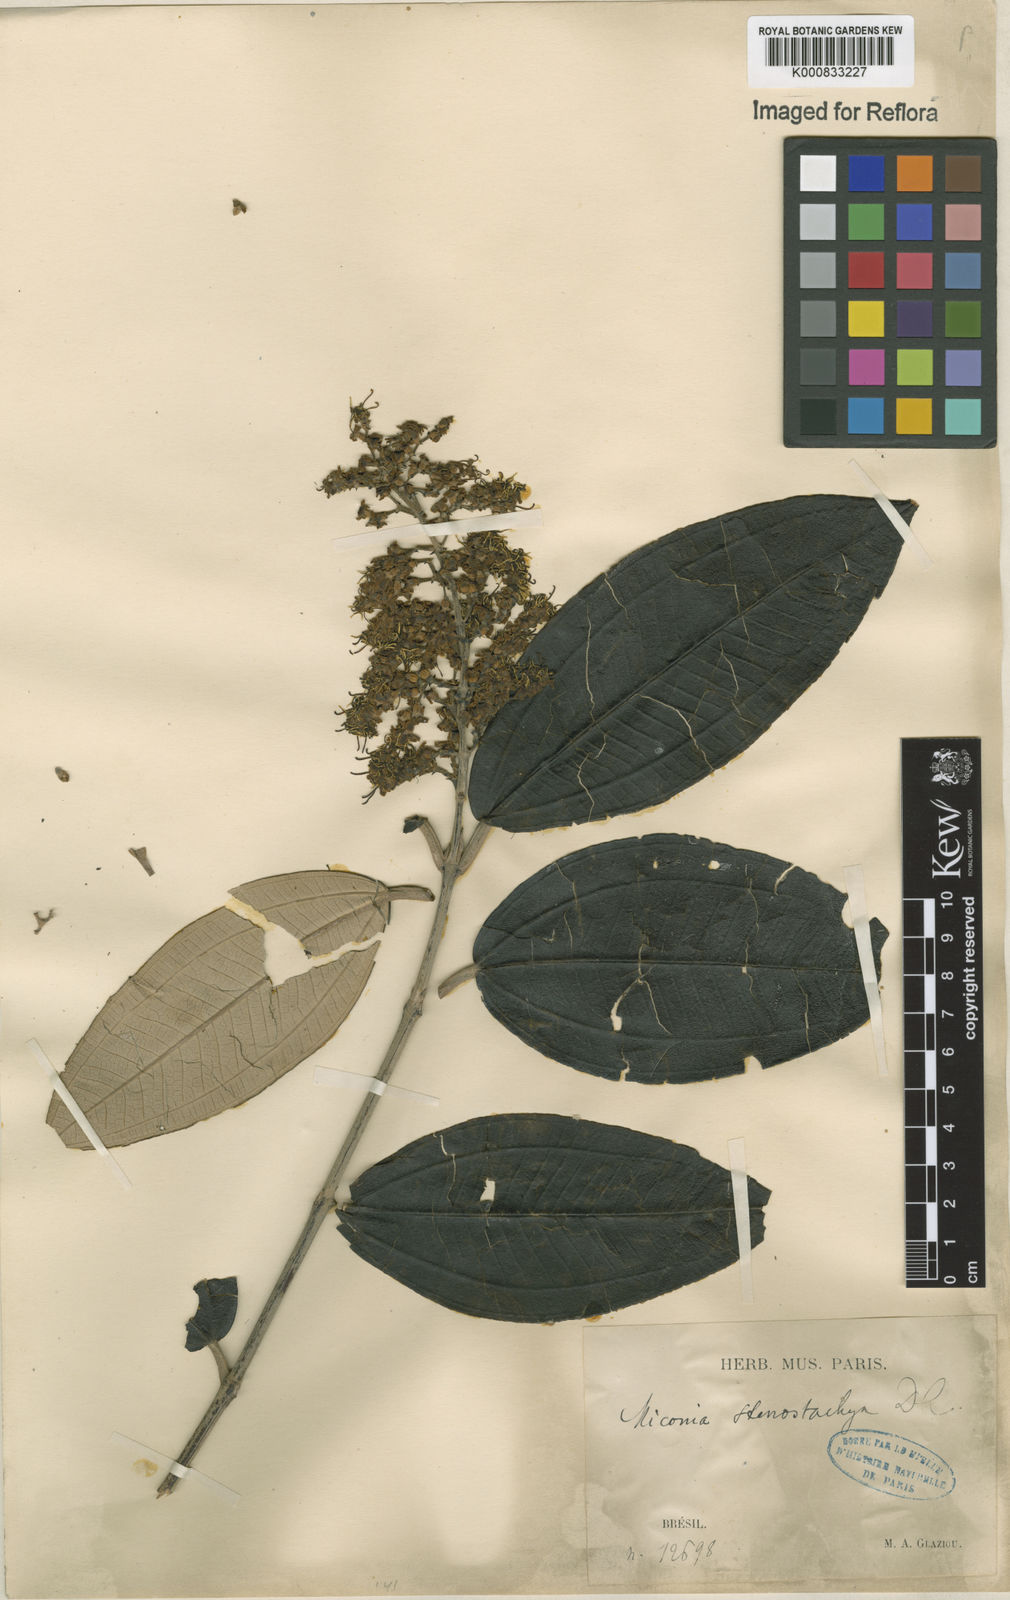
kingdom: Plantae
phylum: Tracheophyta
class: Magnoliopsida
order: Myrtales
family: Melastomataceae
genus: Miconia
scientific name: Miconia stenostachya
